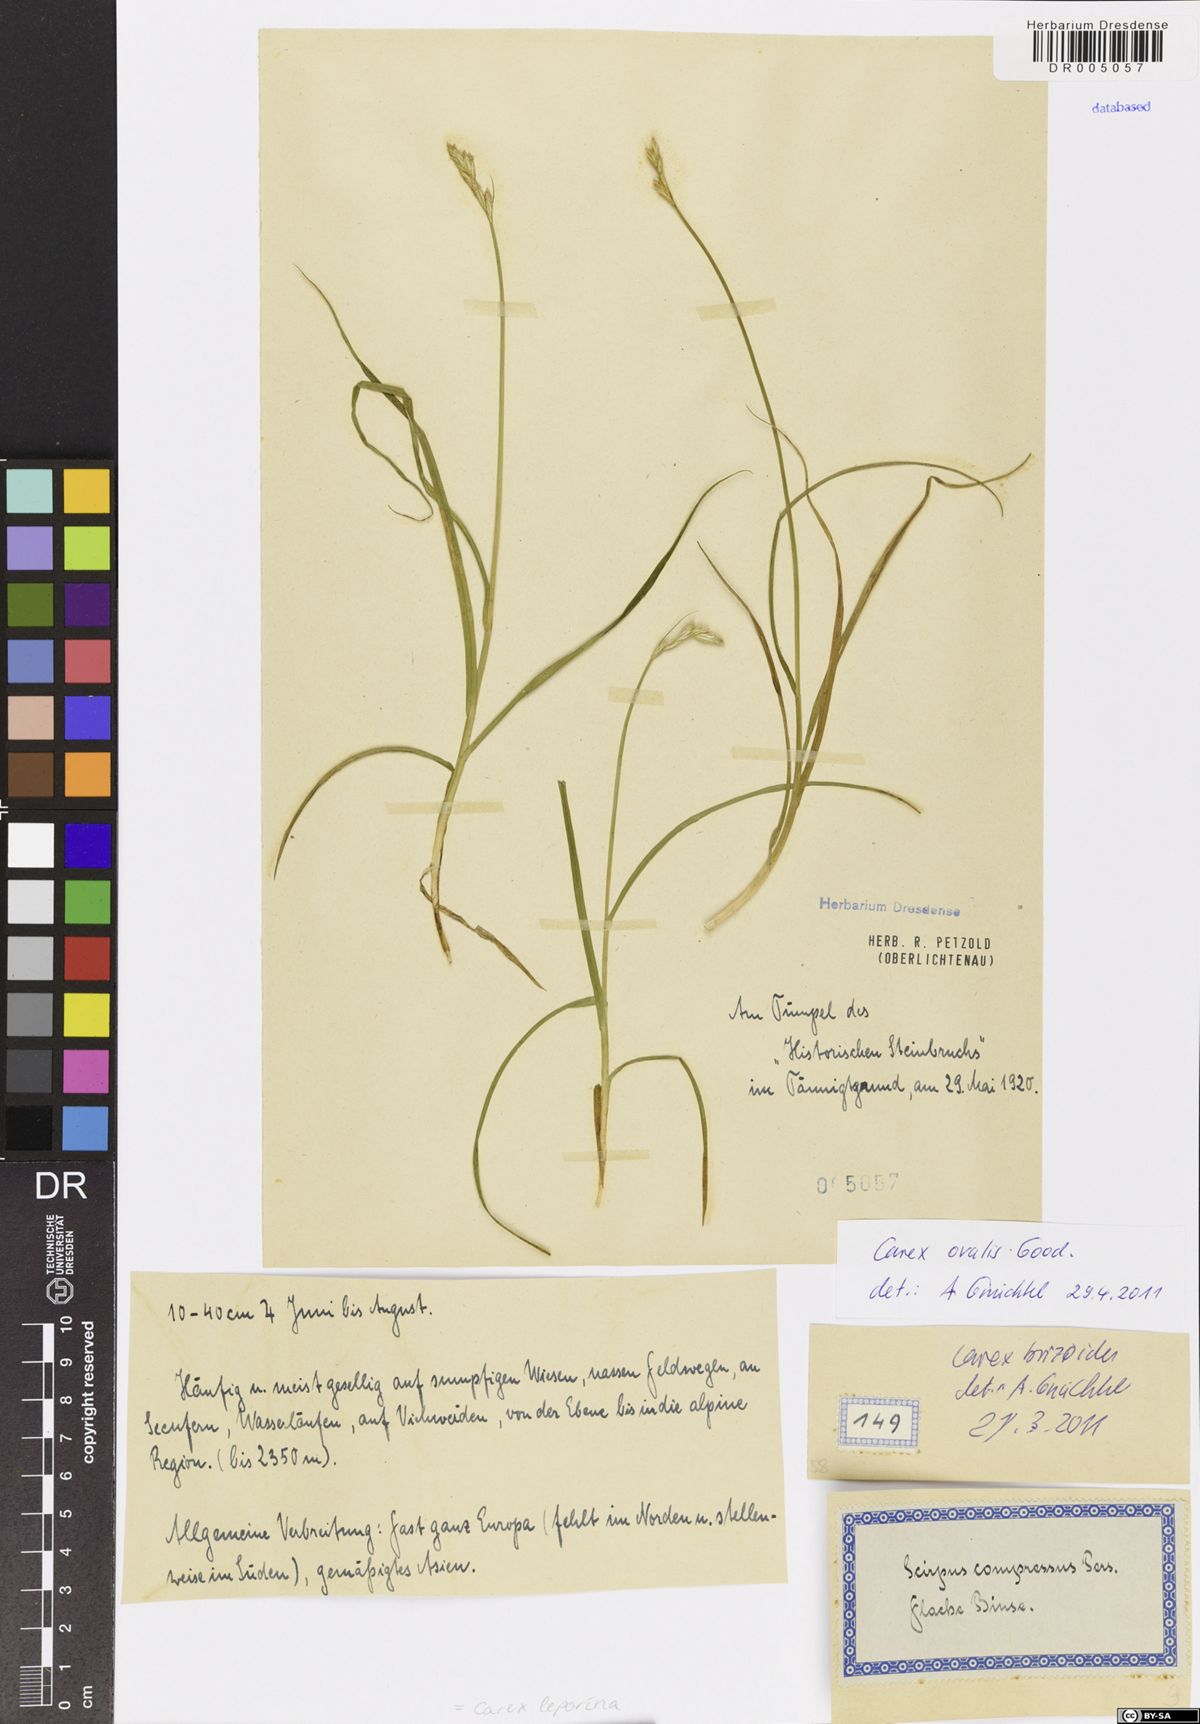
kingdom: Plantae
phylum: Tracheophyta
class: Liliopsida
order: Poales
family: Cyperaceae
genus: Carex
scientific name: Carex leporina
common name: Oval sedge
